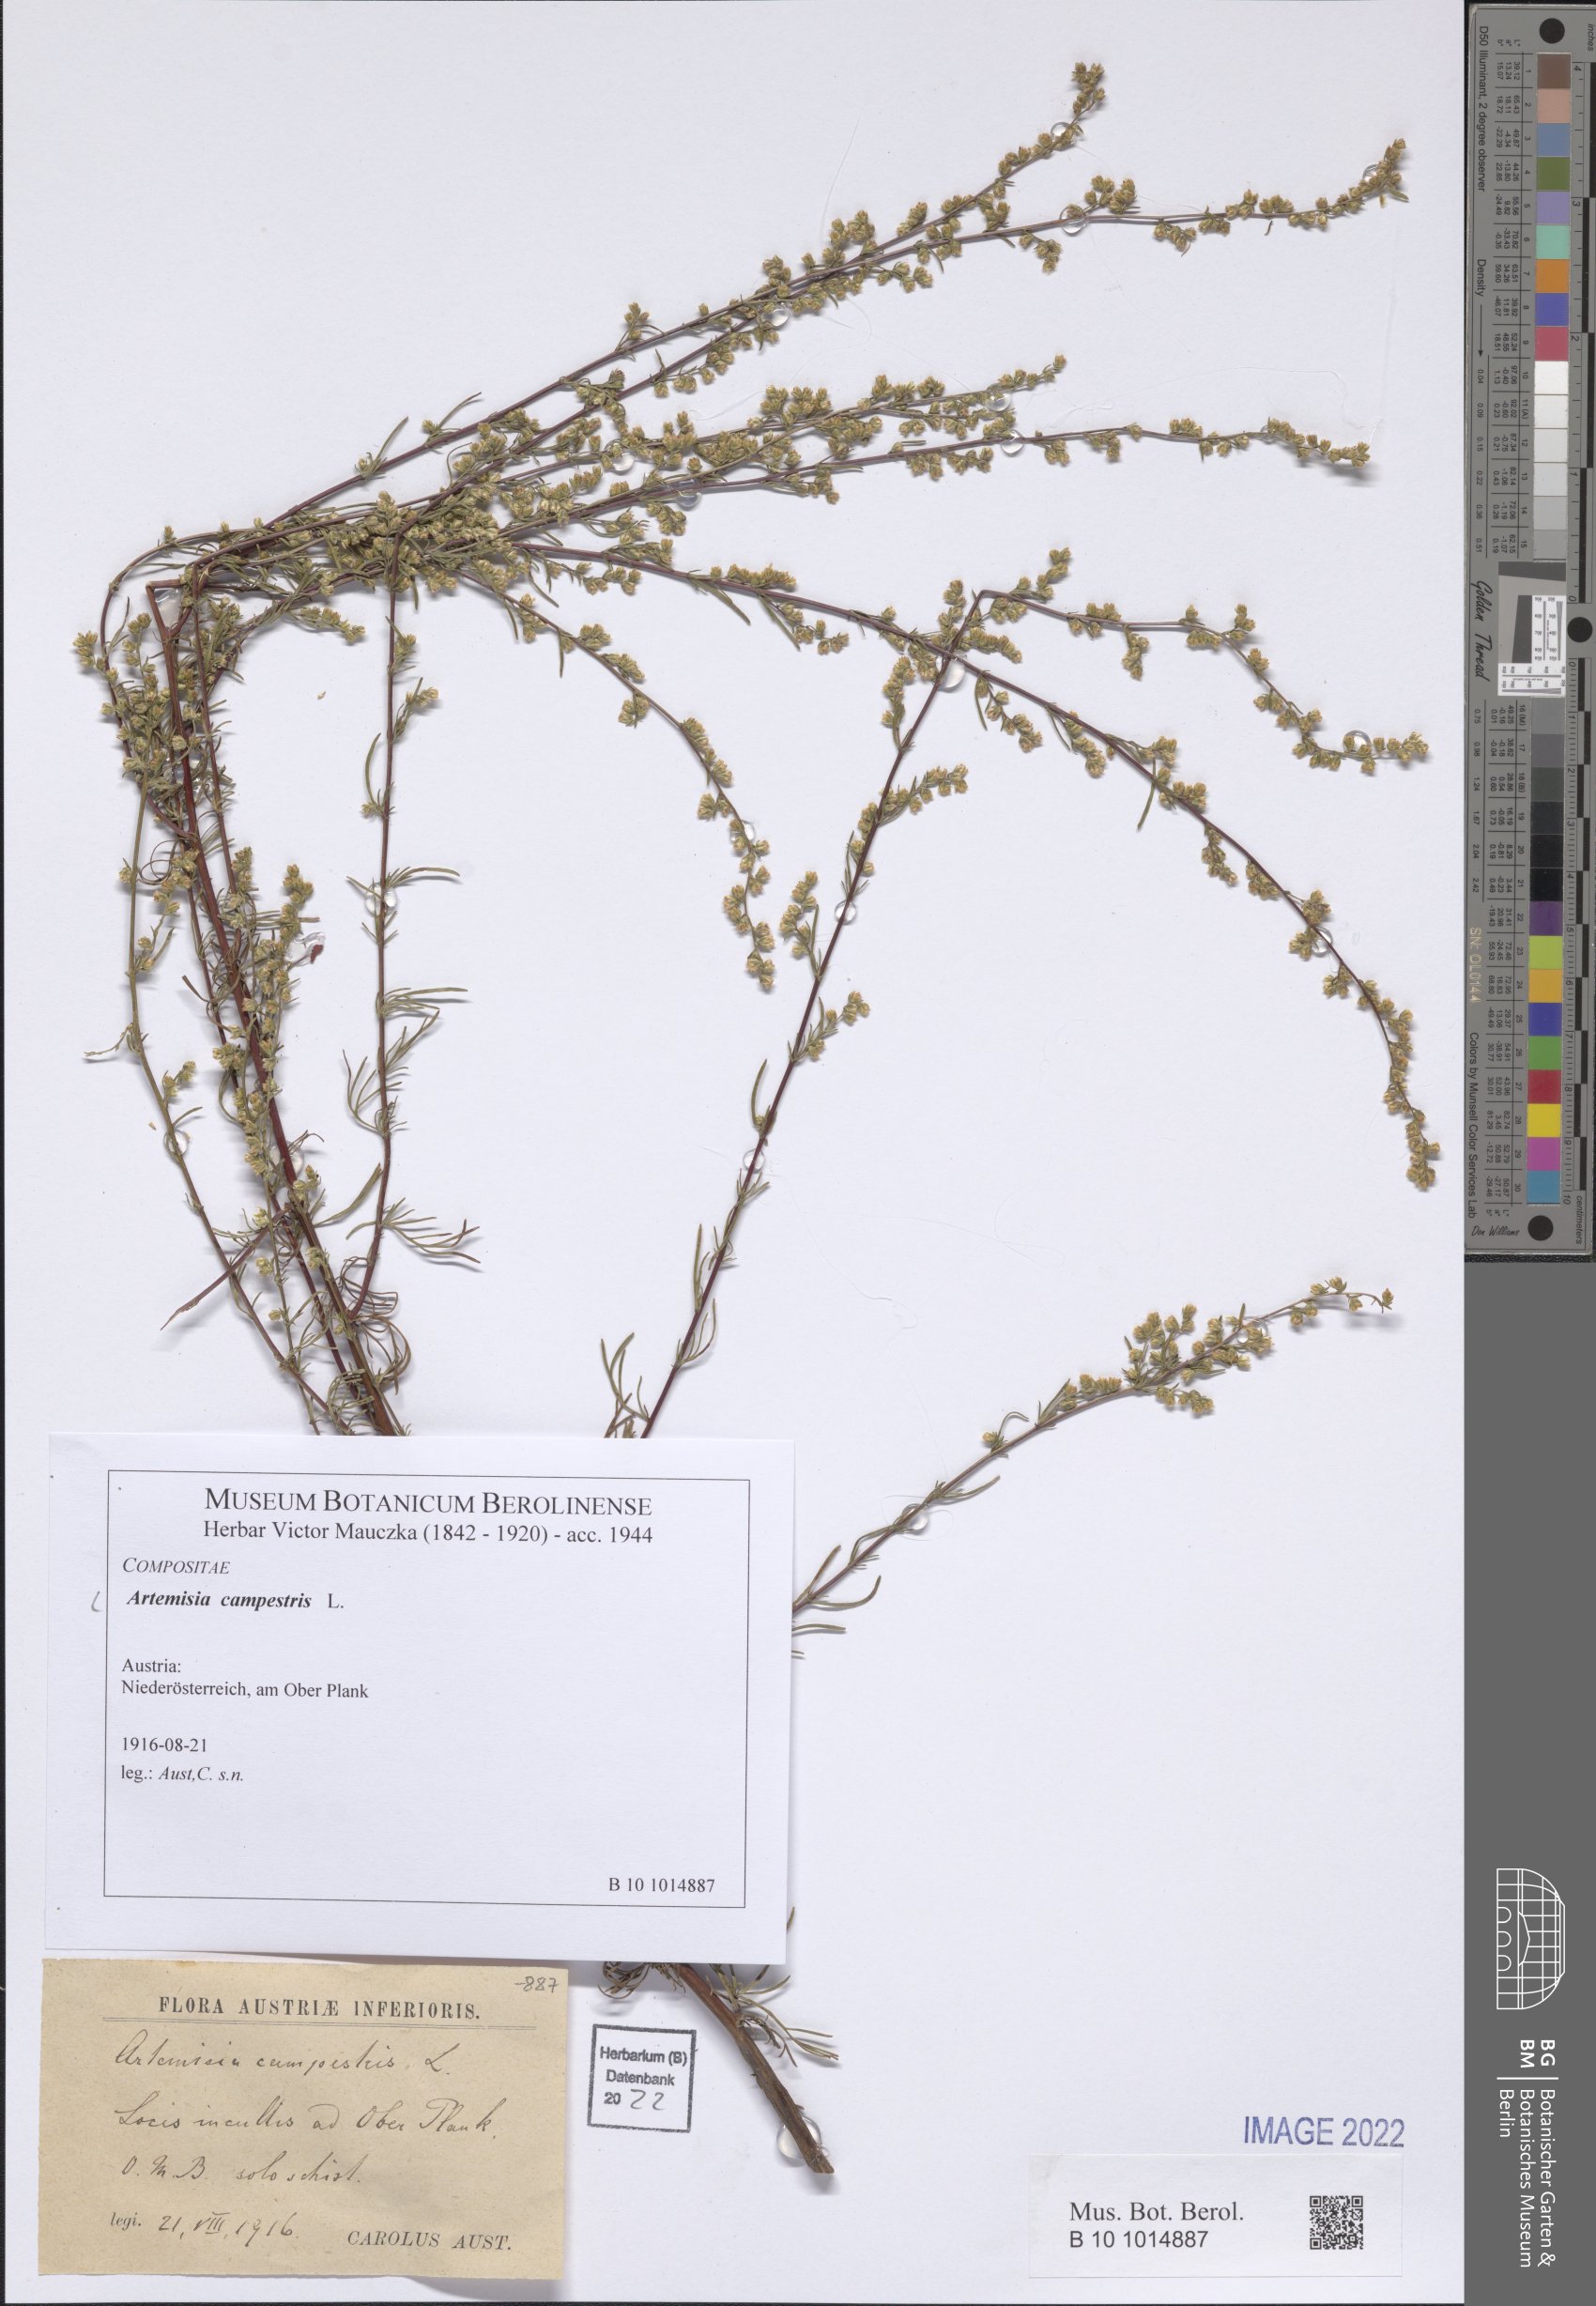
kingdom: Plantae
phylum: Tracheophyta
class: Magnoliopsida
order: Asterales
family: Asteraceae
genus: Artemisia
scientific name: Artemisia campestris
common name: Field wormwood
